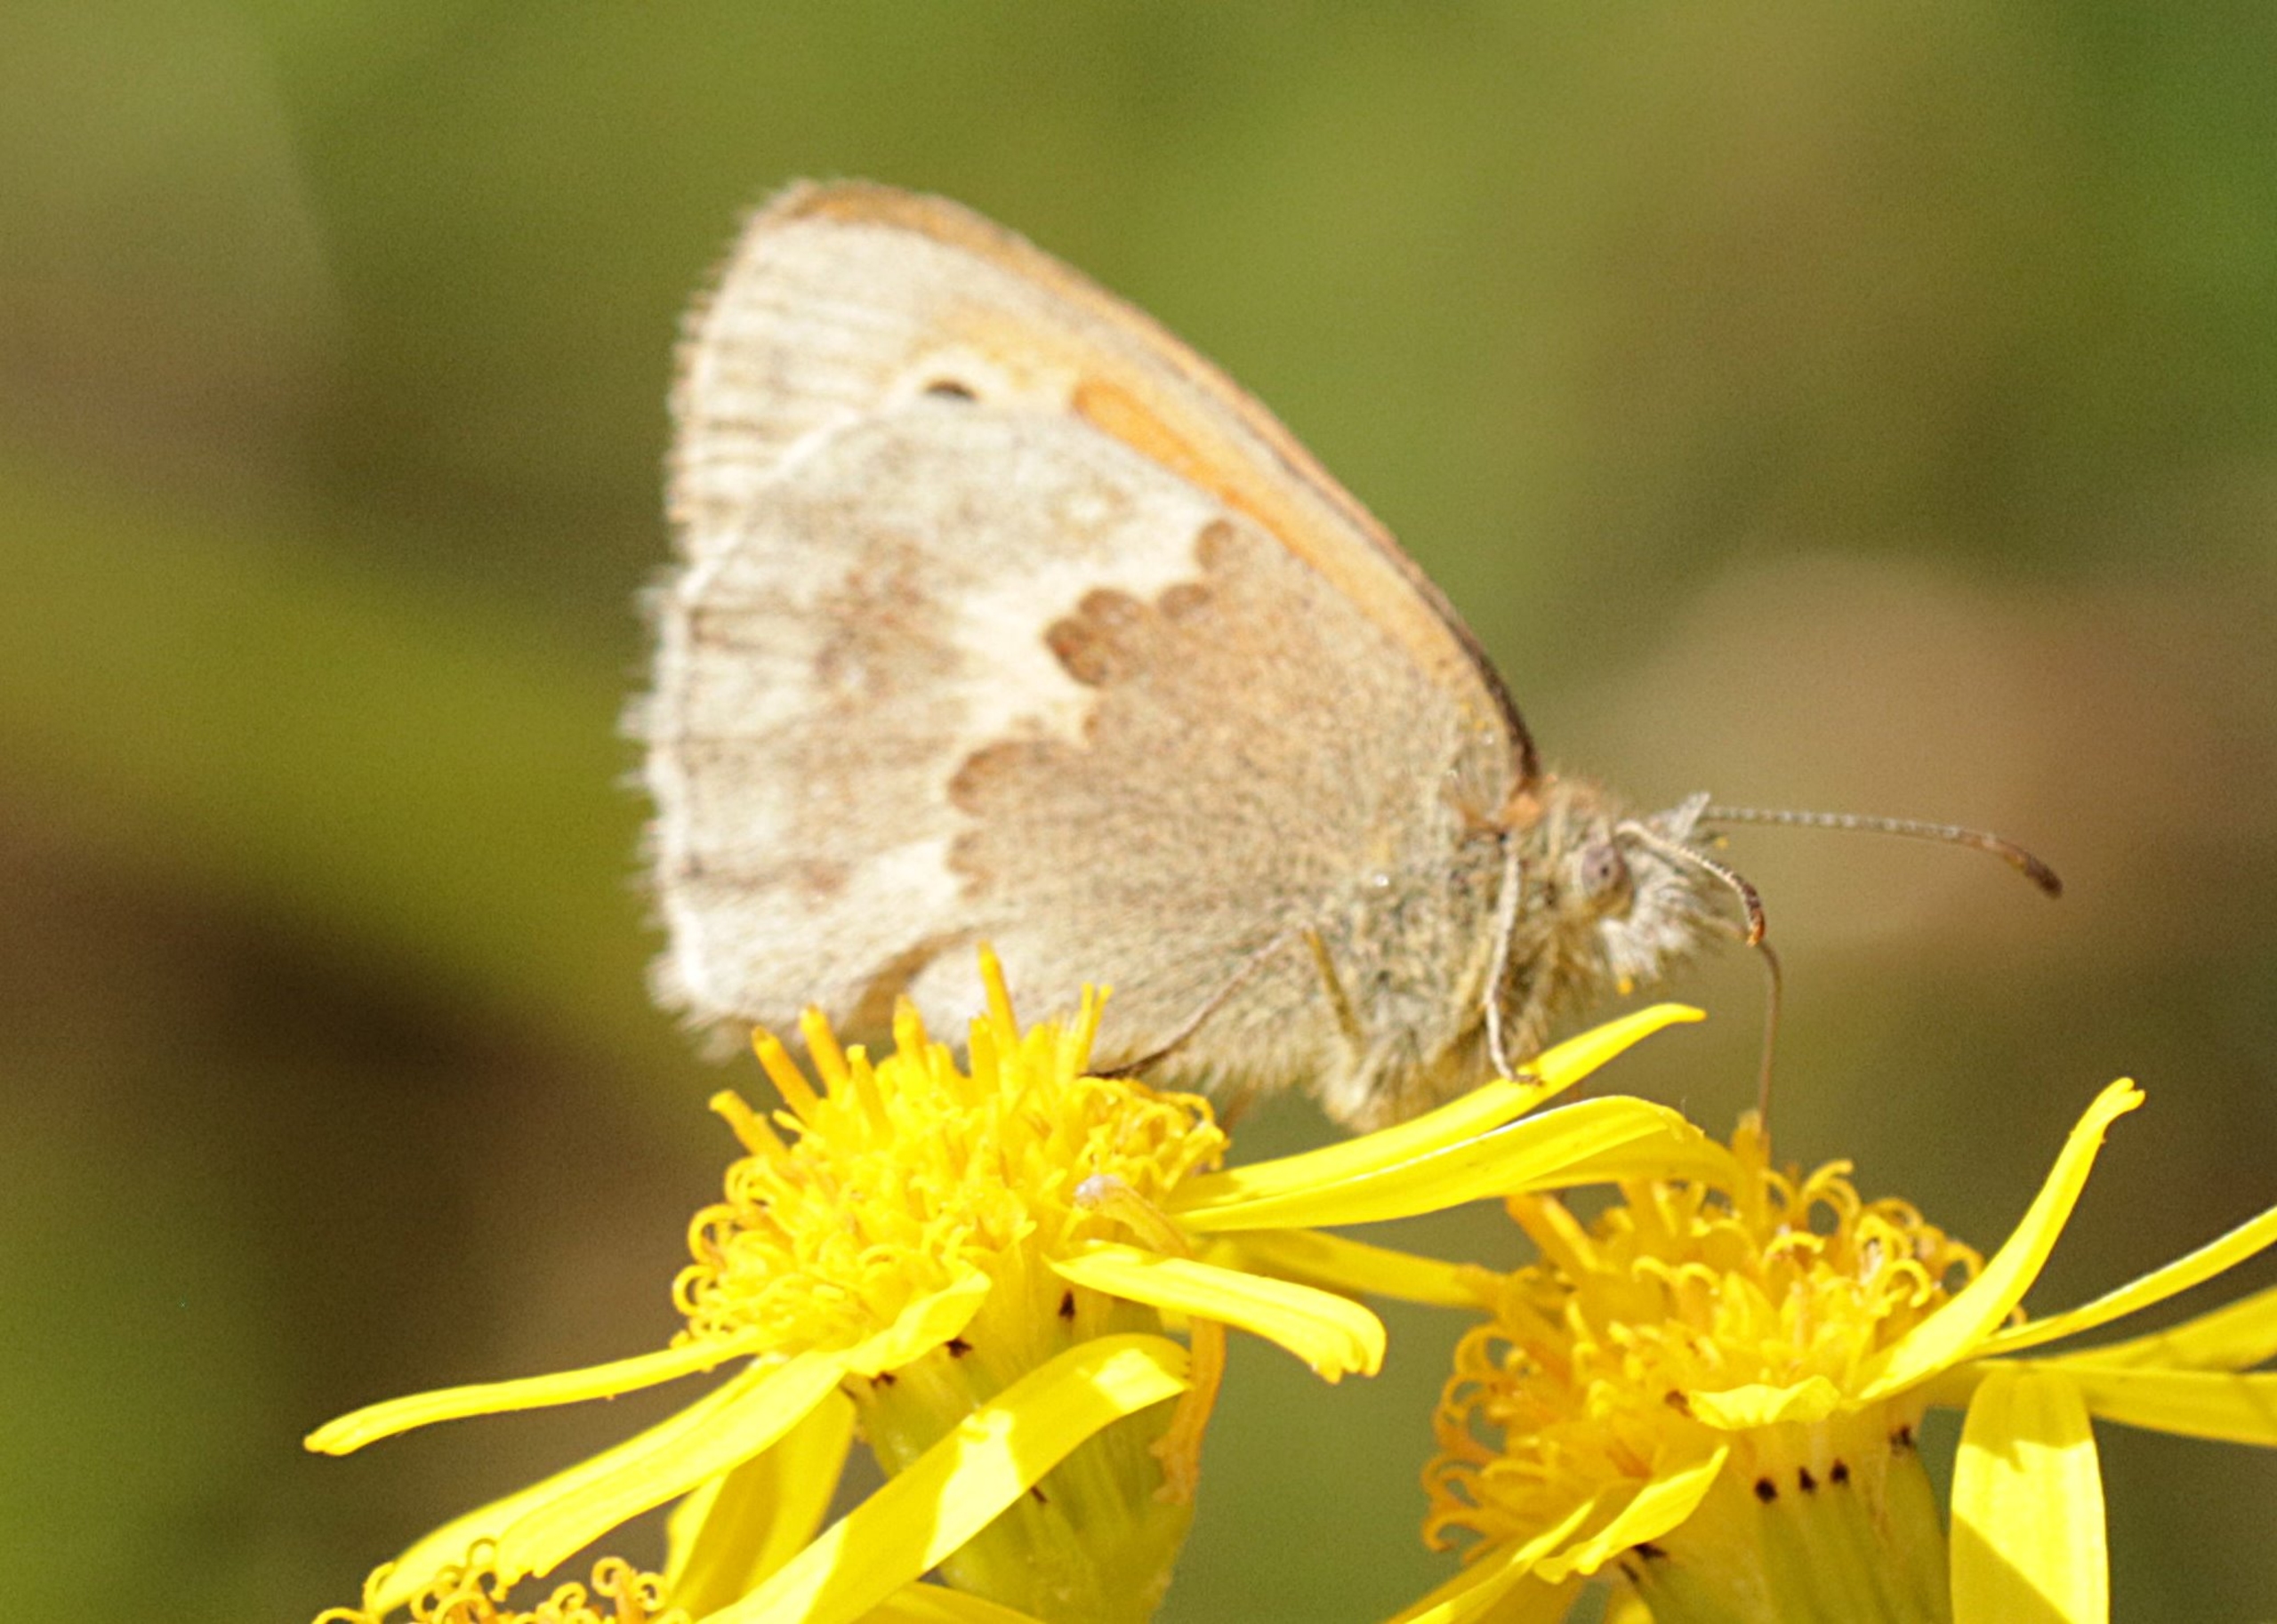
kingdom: Animalia
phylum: Arthropoda
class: Insecta
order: Lepidoptera
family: Nymphalidae
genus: Coenonympha
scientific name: Coenonympha pamphilus
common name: Okkergul randøje
